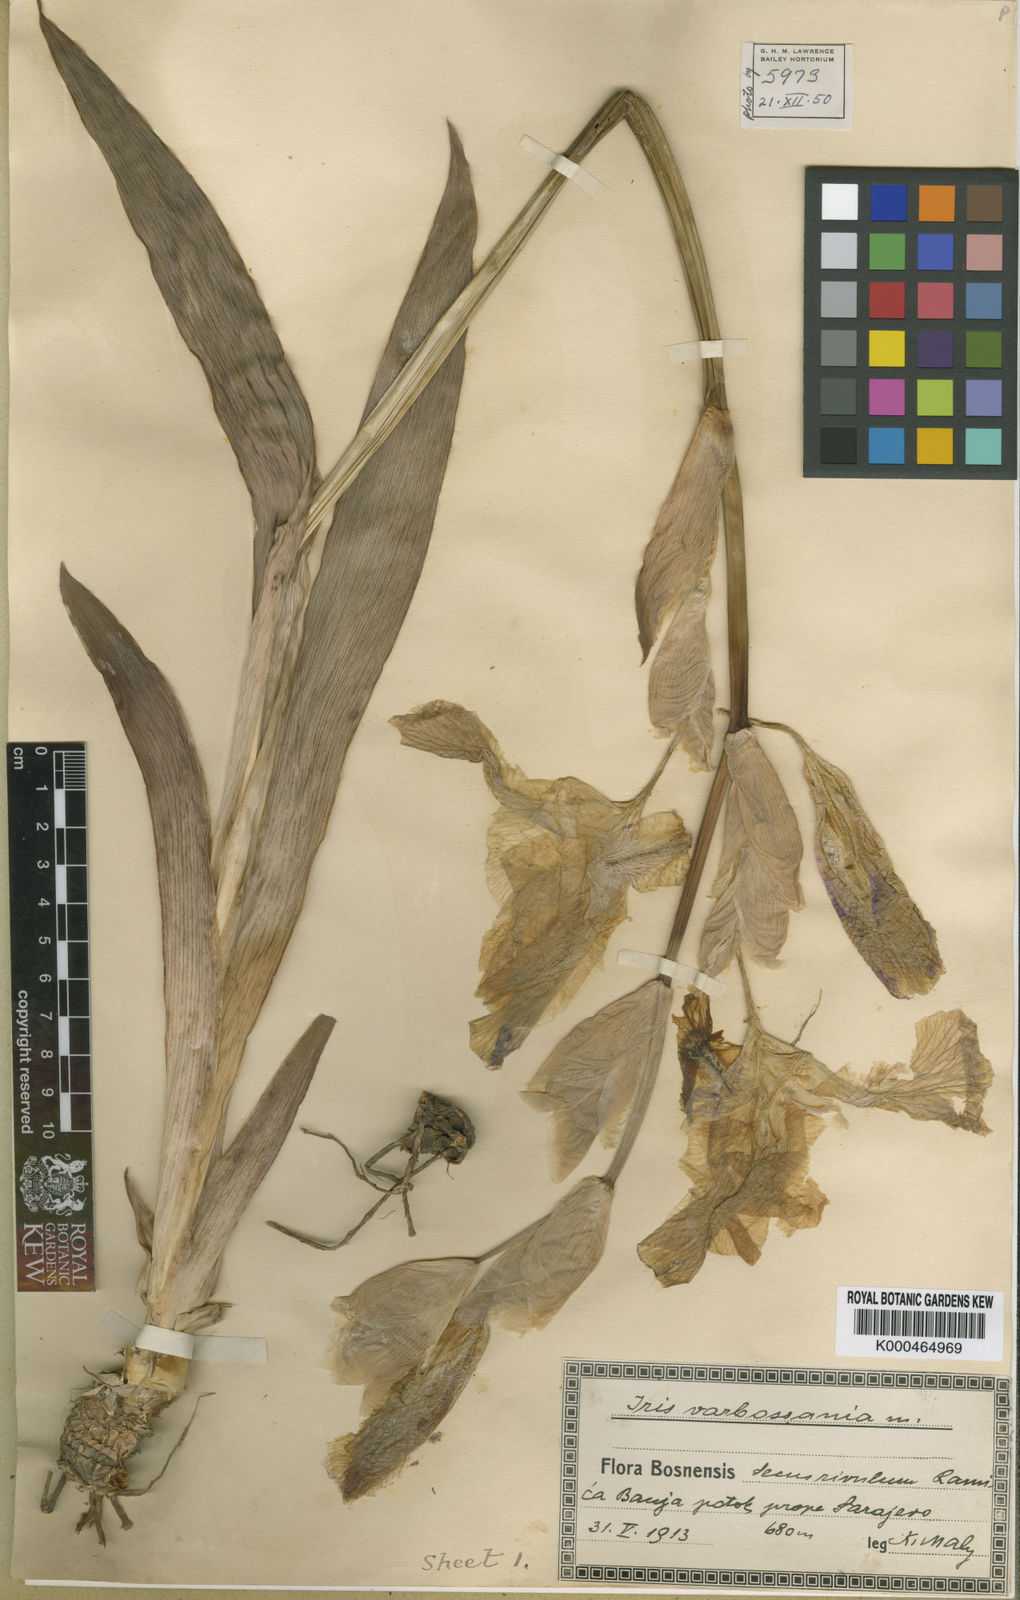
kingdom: Plantae
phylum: Tracheophyta
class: Liliopsida
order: Asparagales
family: Iridaceae
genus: Iris
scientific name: Iris
